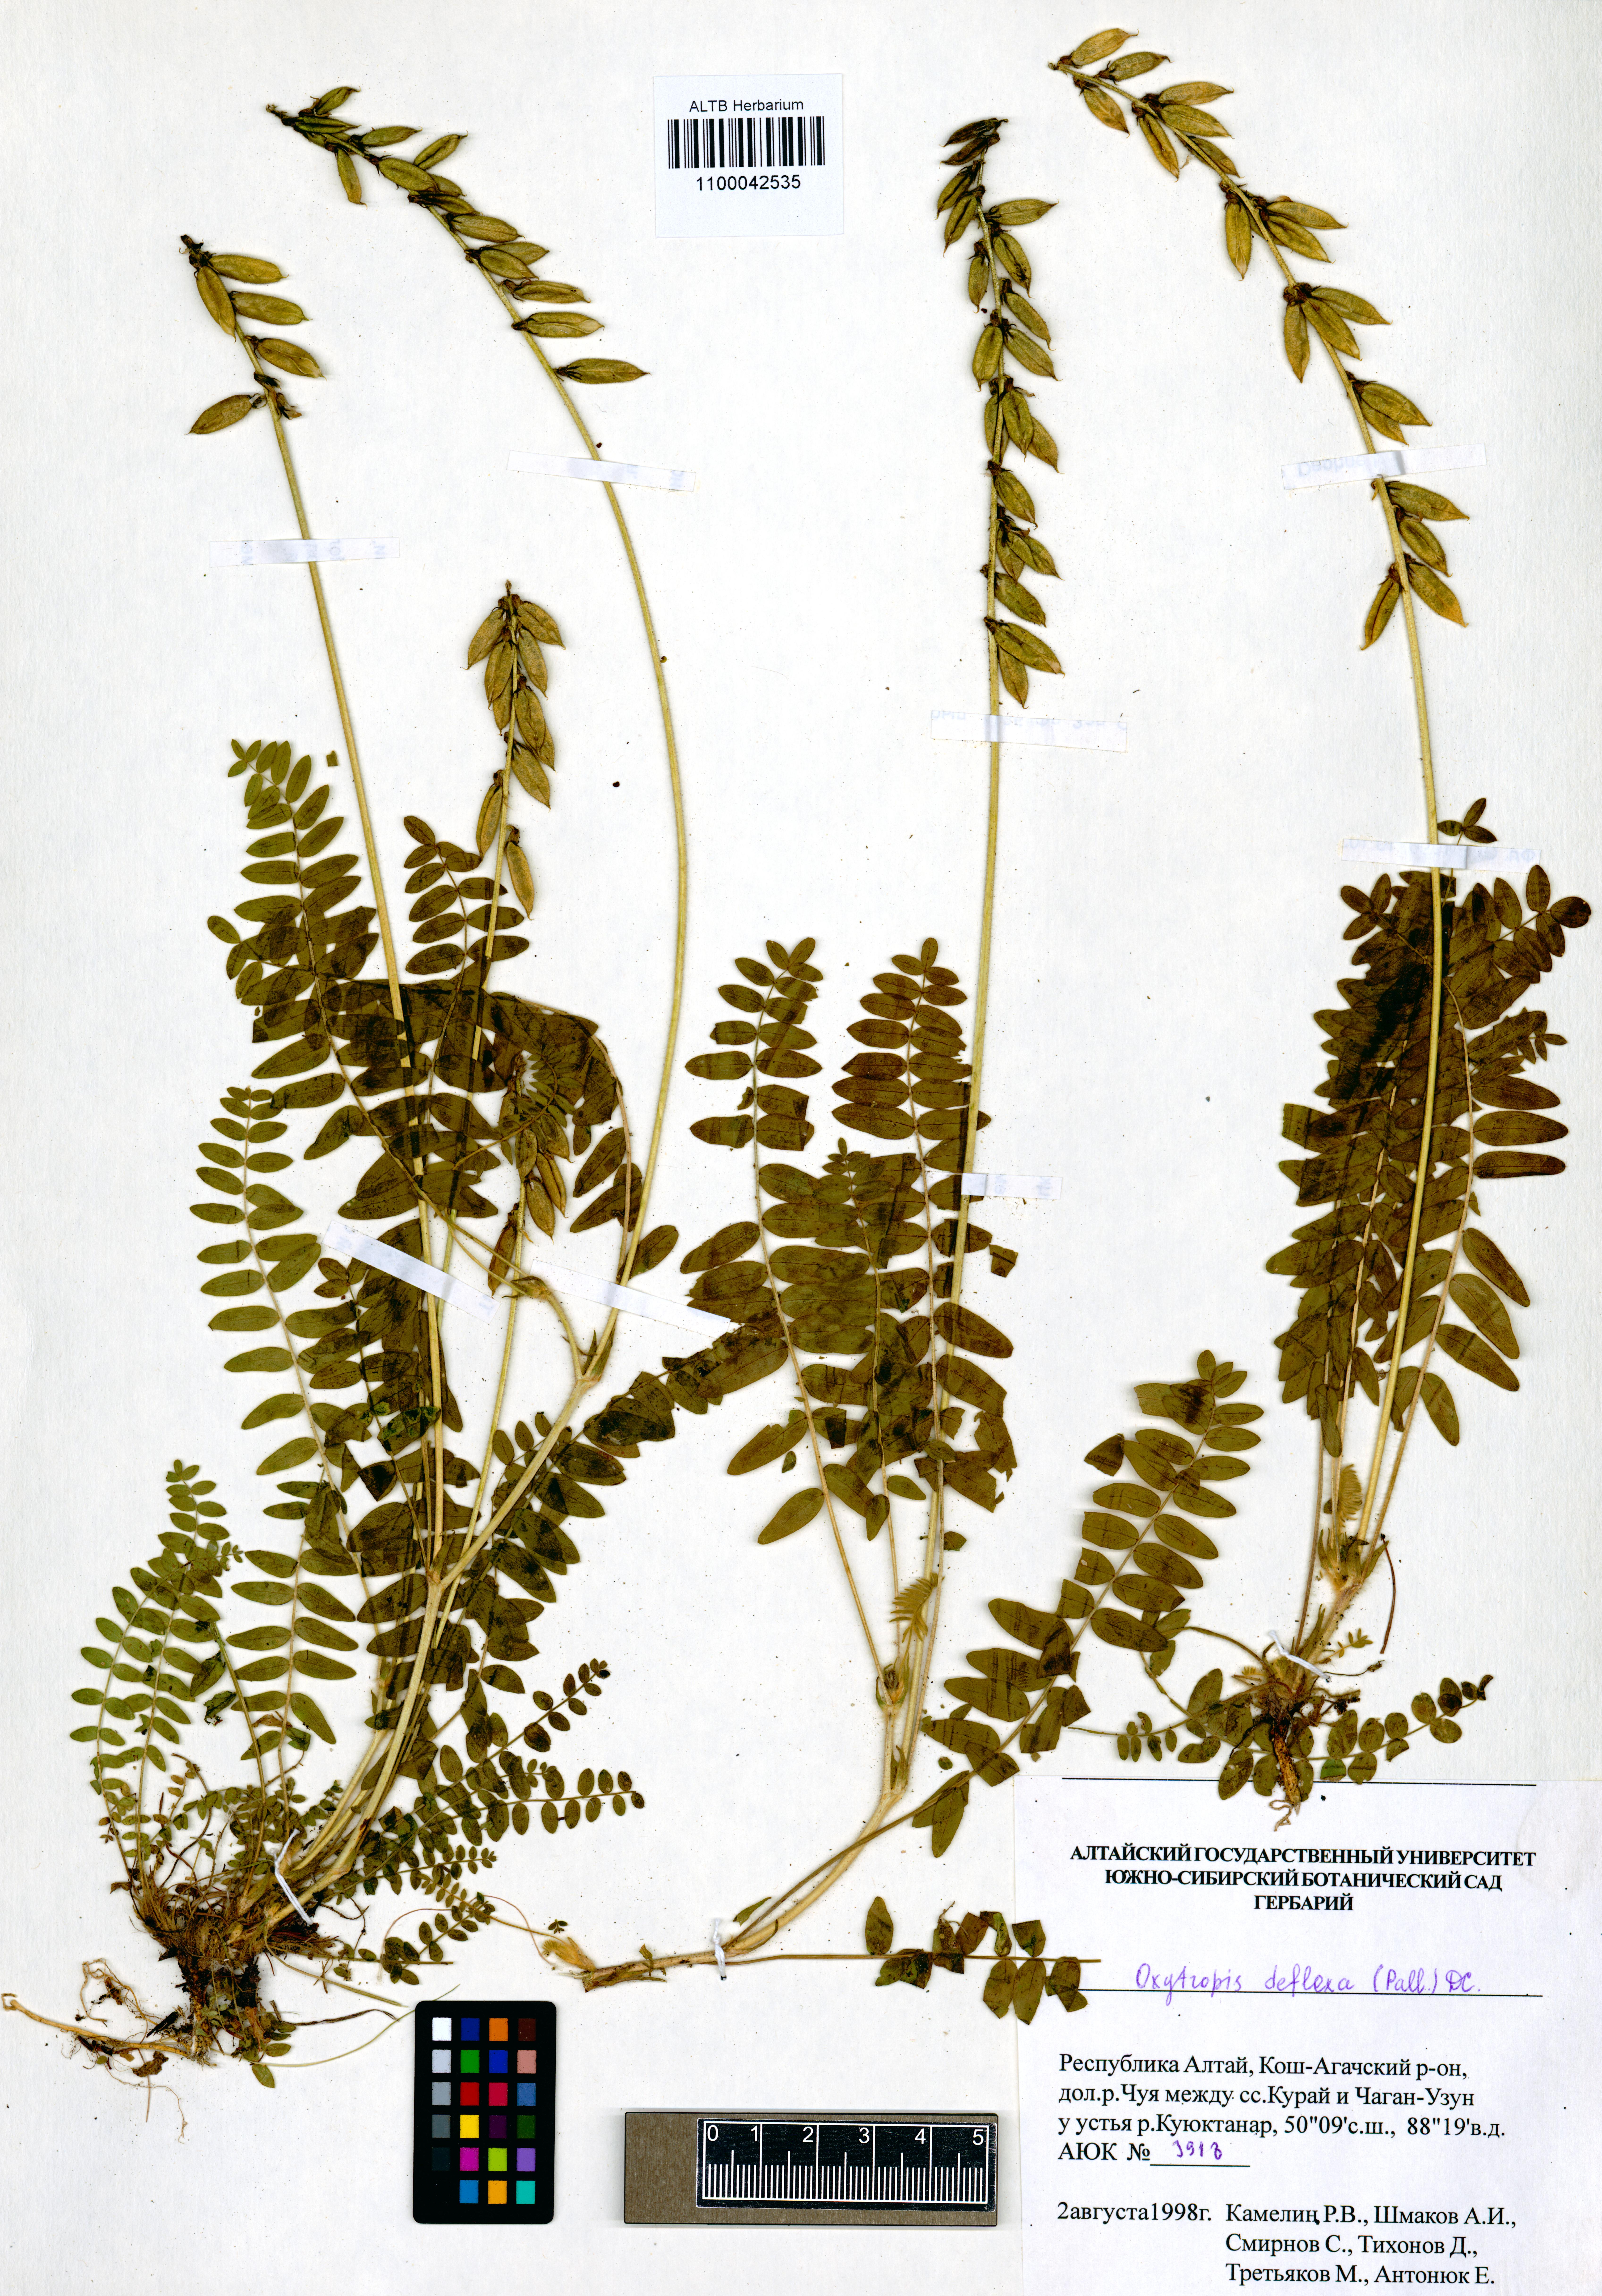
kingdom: Plantae
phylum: Tracheophyta
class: Magnoliopsida
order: Fabales
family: Fabaceae
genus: Oxytropis
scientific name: Oxytropis deflexa
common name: Stemmed oxytrope
